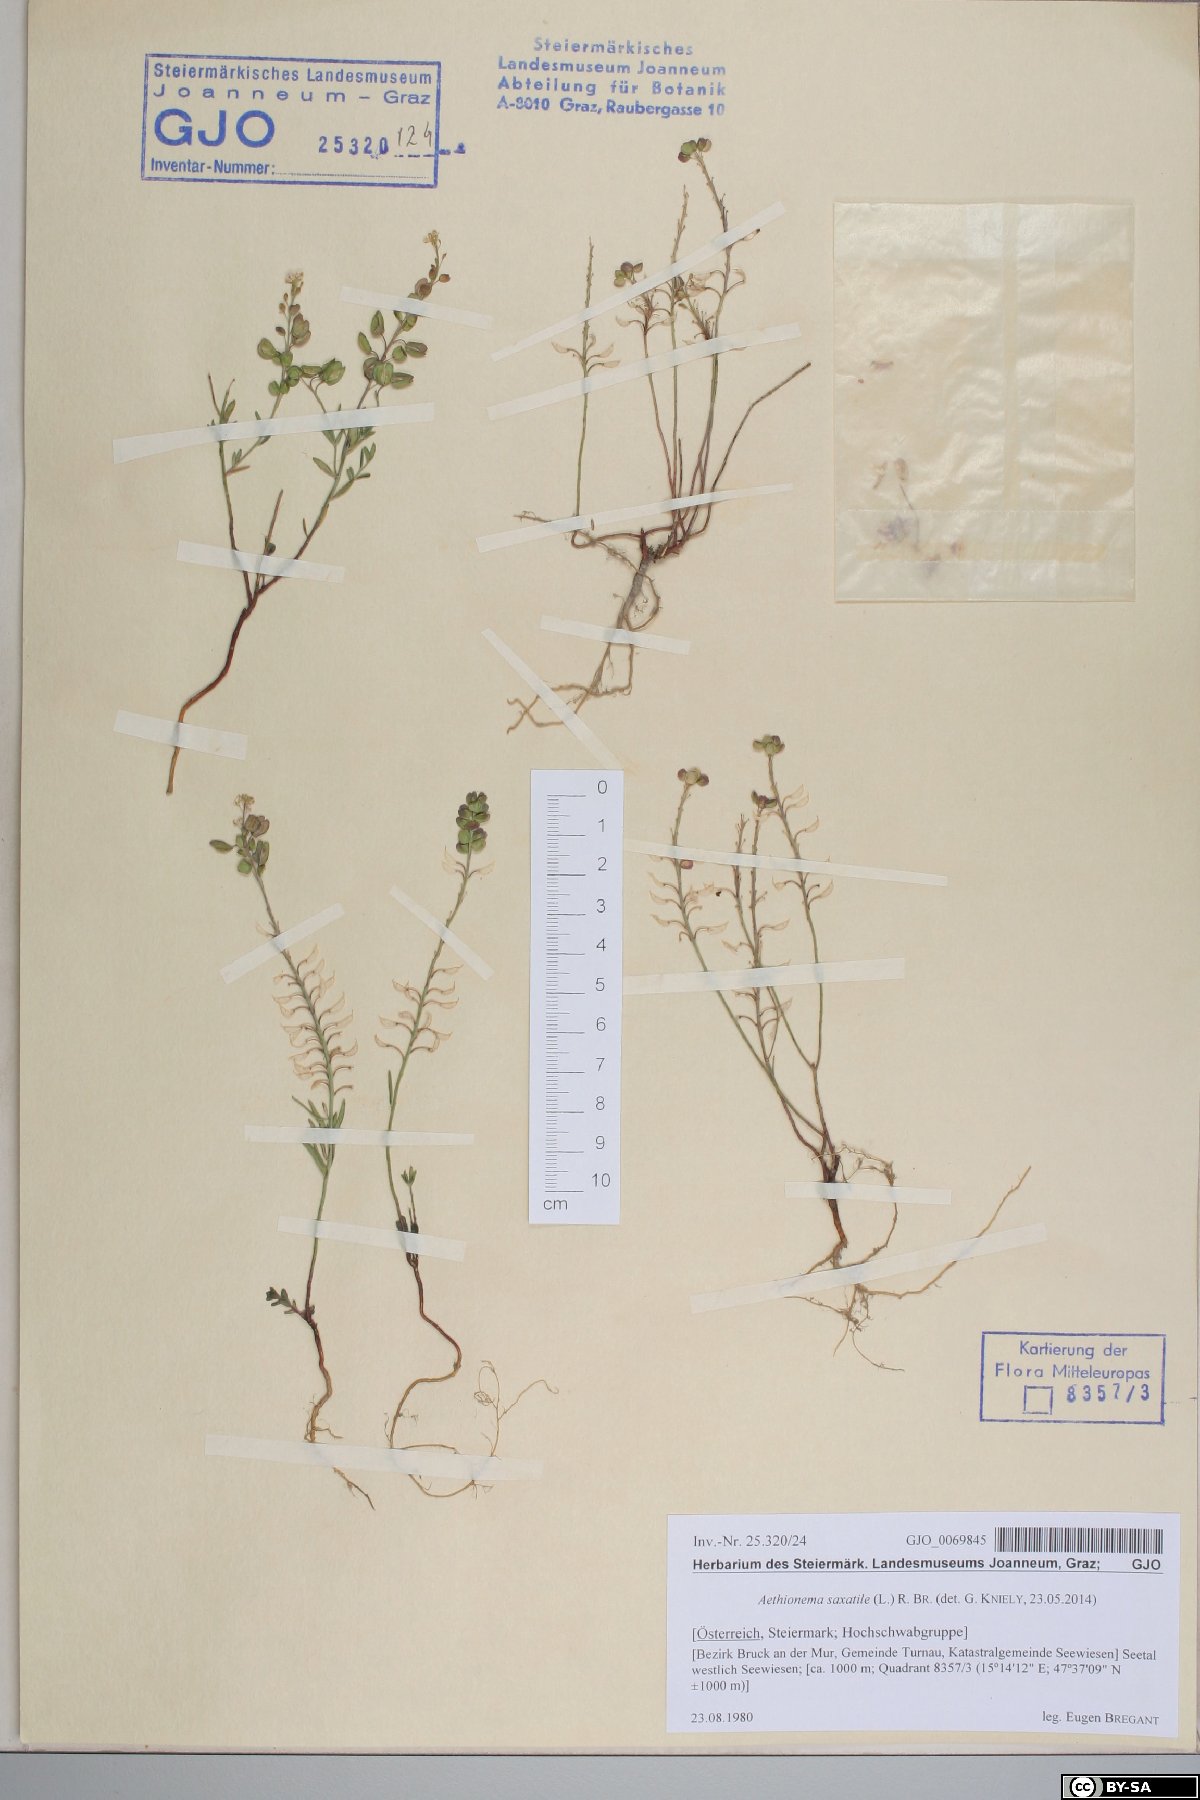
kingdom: Plantae
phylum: Tracheophyta
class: Magnoliopsida
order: Brassicales
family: Brassicaceae
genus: Aethionema
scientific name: Aethionema saxatile
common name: Burnt candytuft
